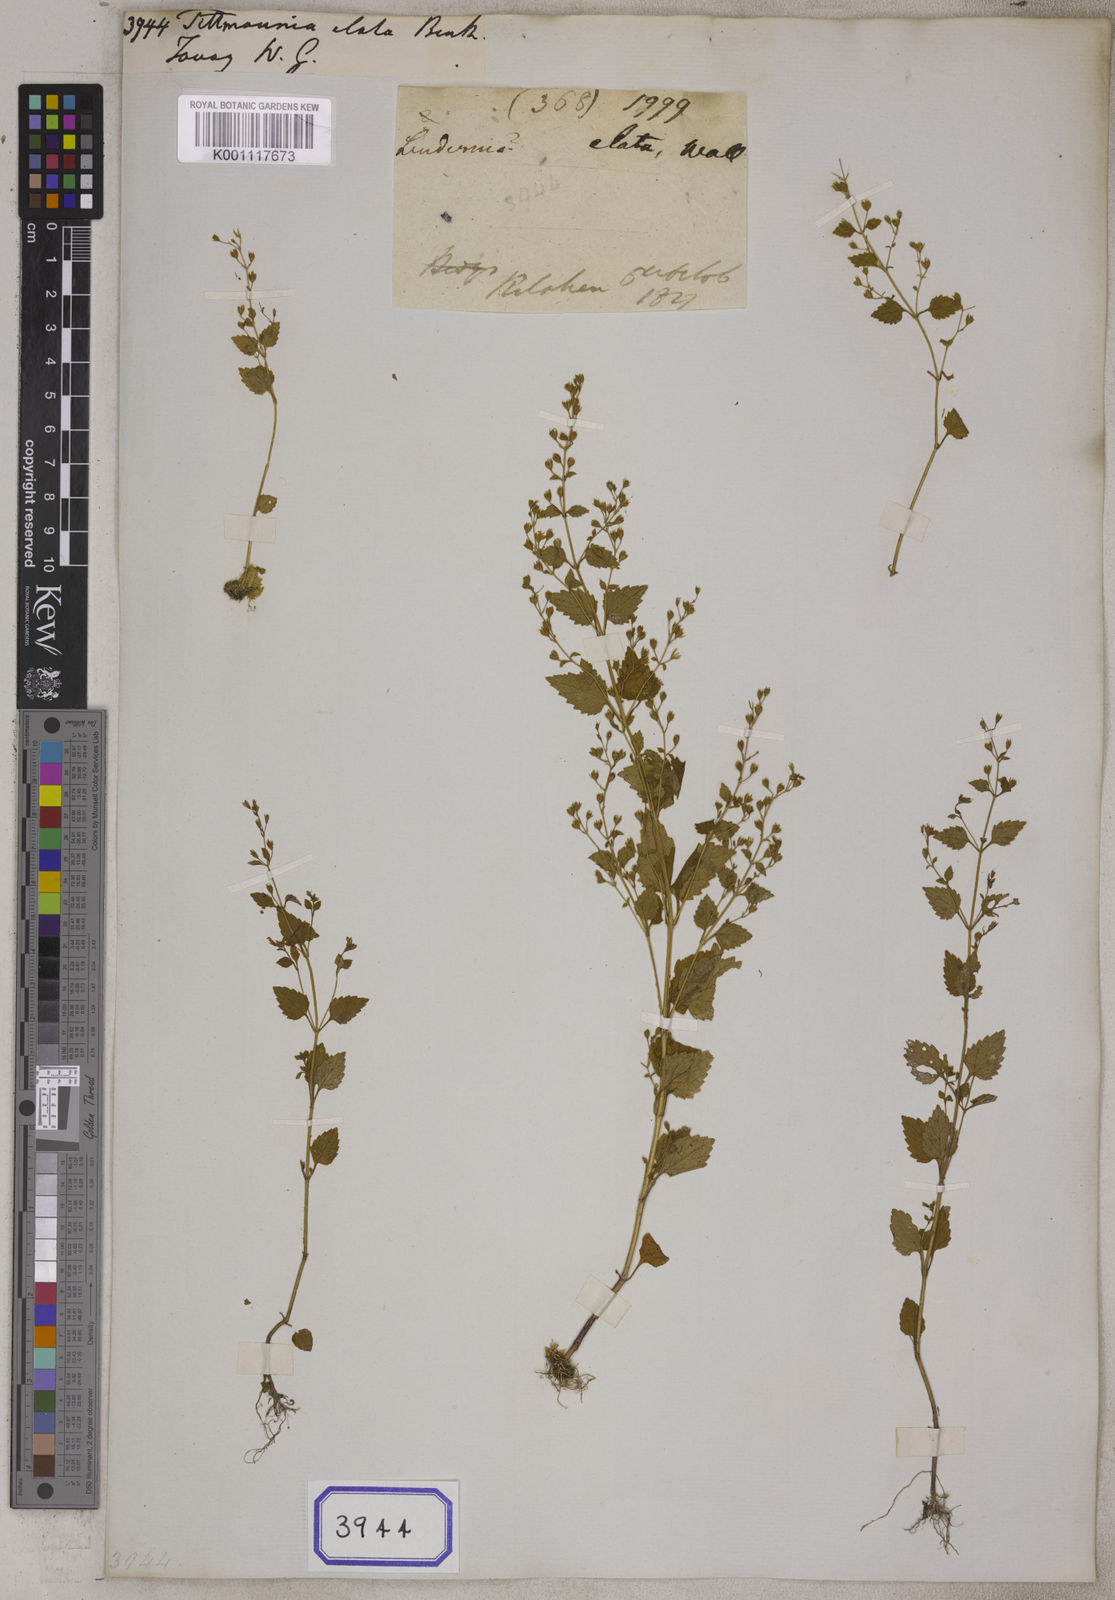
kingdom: Plantae
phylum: Tracheophyta
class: Magnoliopsida
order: Lamiales
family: Linderniaceae
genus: Vandellia
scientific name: Vandellia elata
